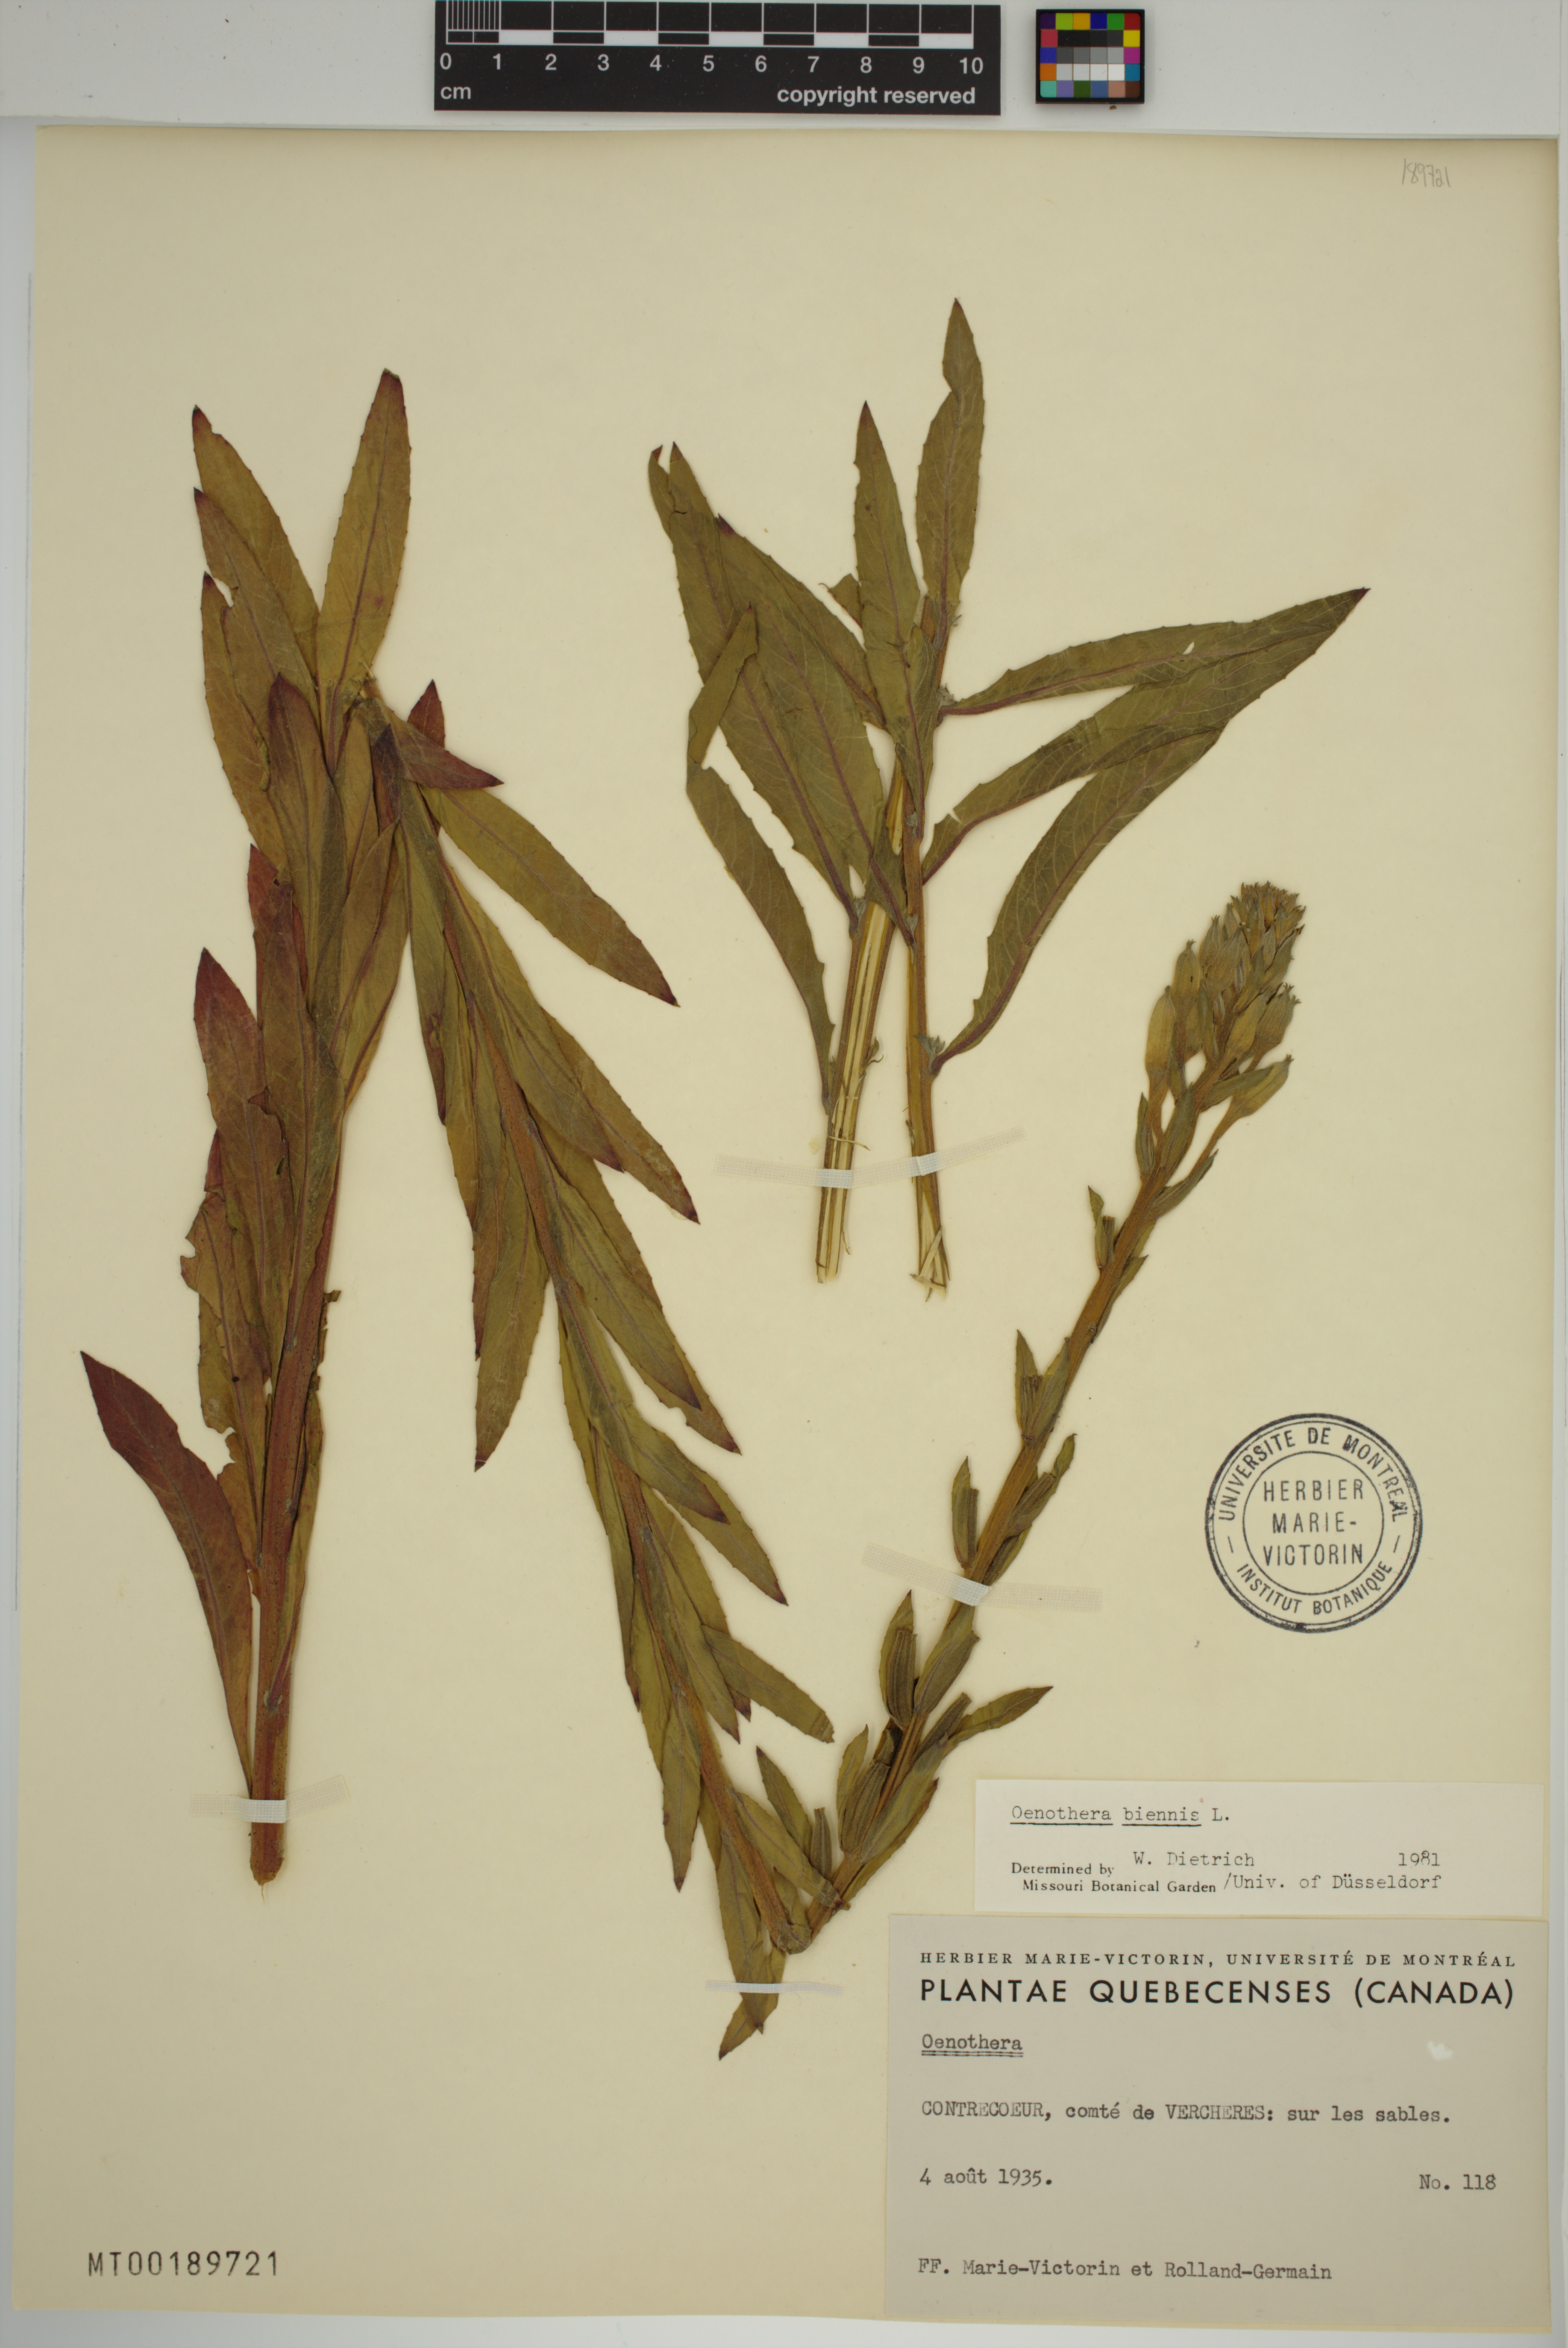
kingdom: Plantae
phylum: Tracheophyta
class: Magnoliopsida
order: Myrtales
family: Onagraceae
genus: Oenothera
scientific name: Oenothera biennis
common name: Common evening-primrose
